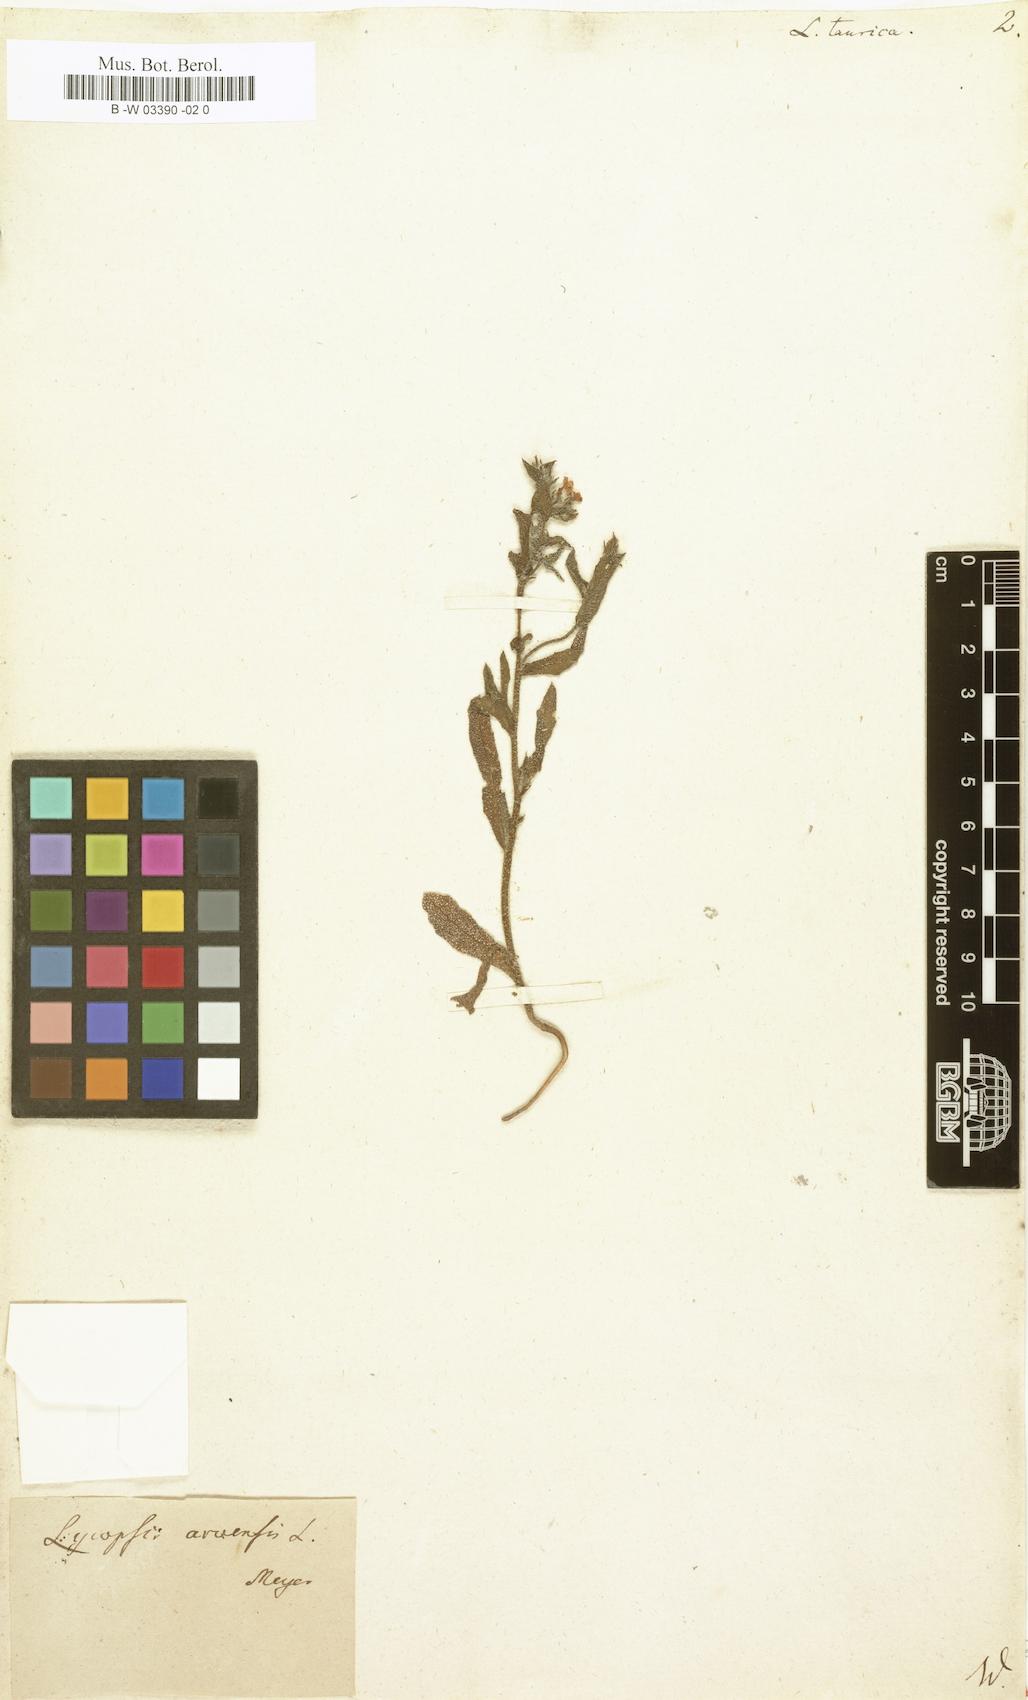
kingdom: Plantae
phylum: Tracheophyta
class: Magnoliopsida
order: Boraginales
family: Boraginaceae
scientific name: Boraginaceae
